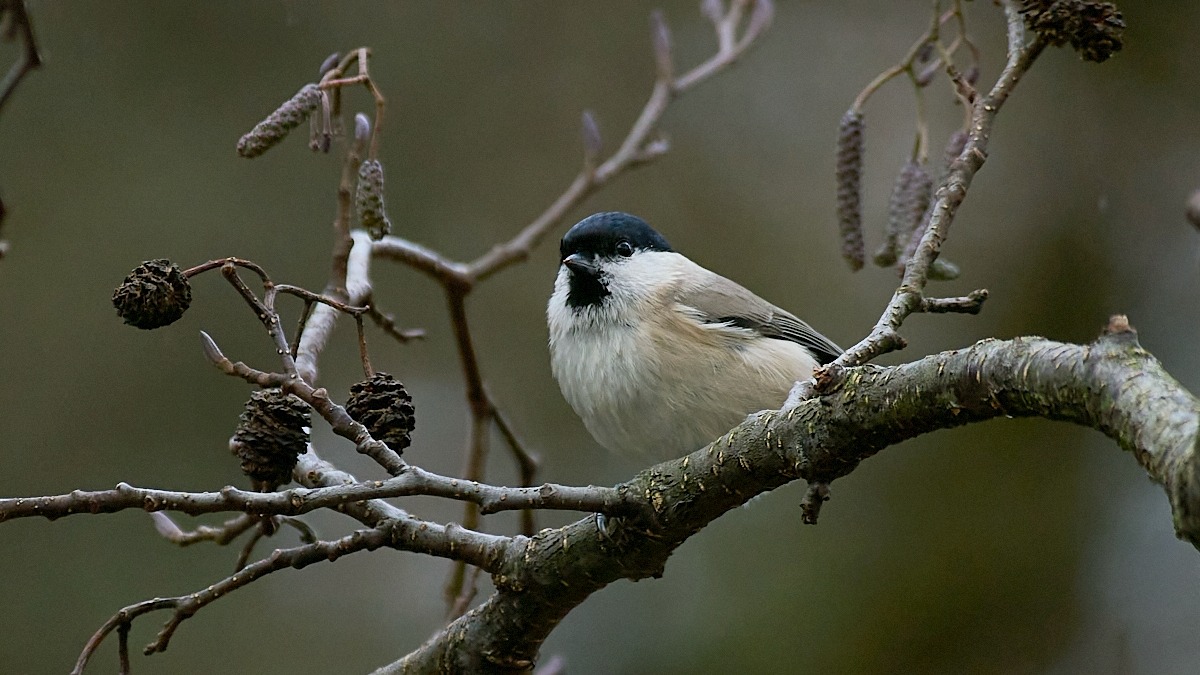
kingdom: Animalia
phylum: Chordata
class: Aves
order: Passeriformes
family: Paridae
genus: Poecile
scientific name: Poecile palustris
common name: Sumpmejse
